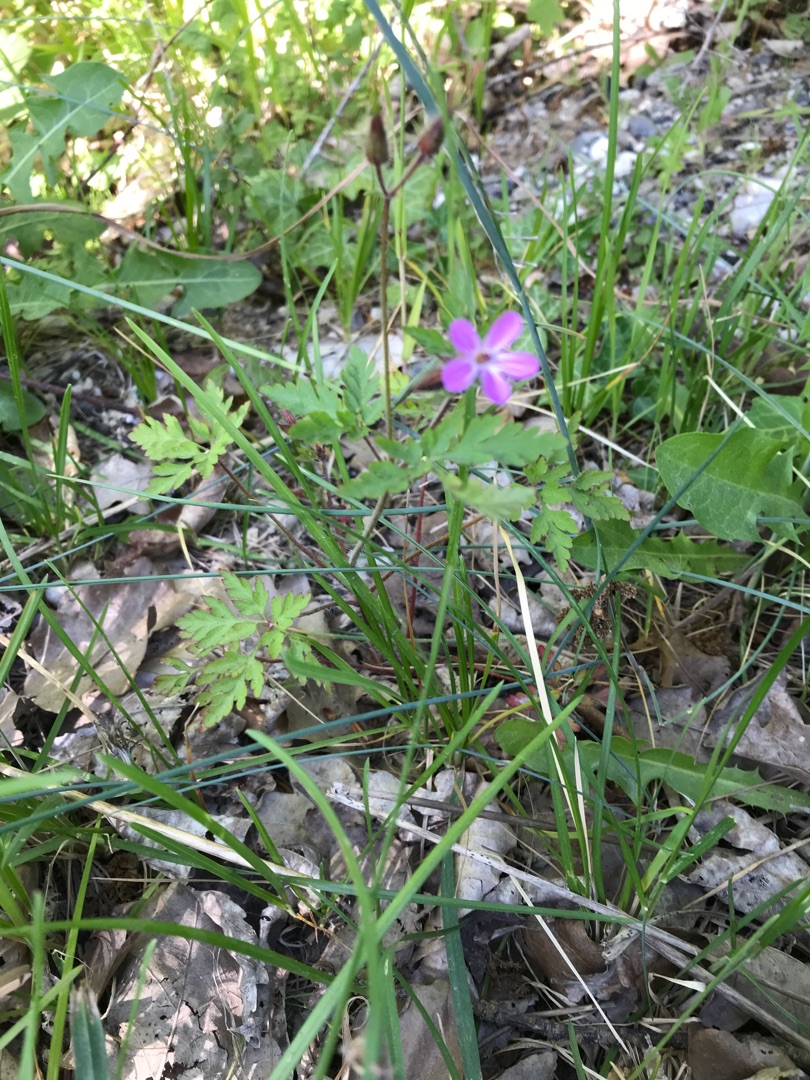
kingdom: Plantae
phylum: Tracheophyta
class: Magnoliopsida
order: Geraniales
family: Geraniaceae
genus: Geranium
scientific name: Geranium robertianum
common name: Stinkende storkenæb
